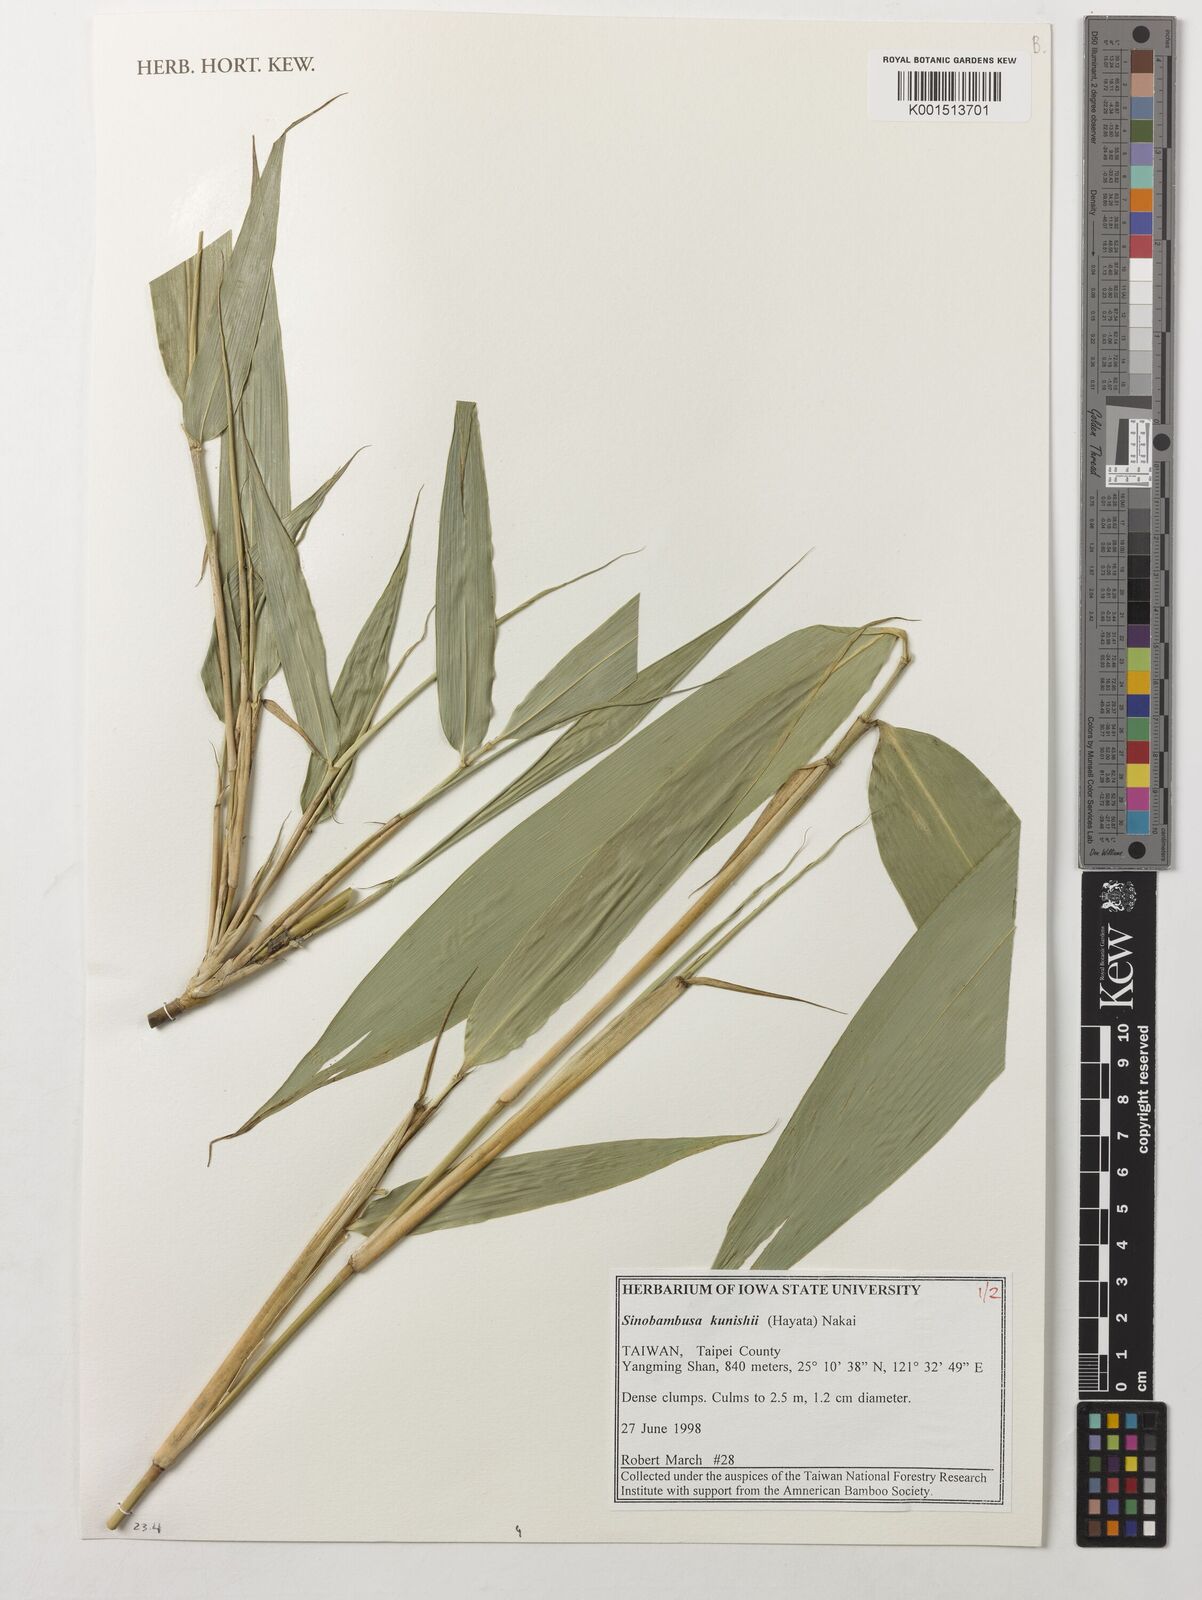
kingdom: Plantae
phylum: Tracheophyta
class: Liliopsida
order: Poales
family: Poaceae
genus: Gelidocalamus
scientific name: Gelidocalamus kunishii
